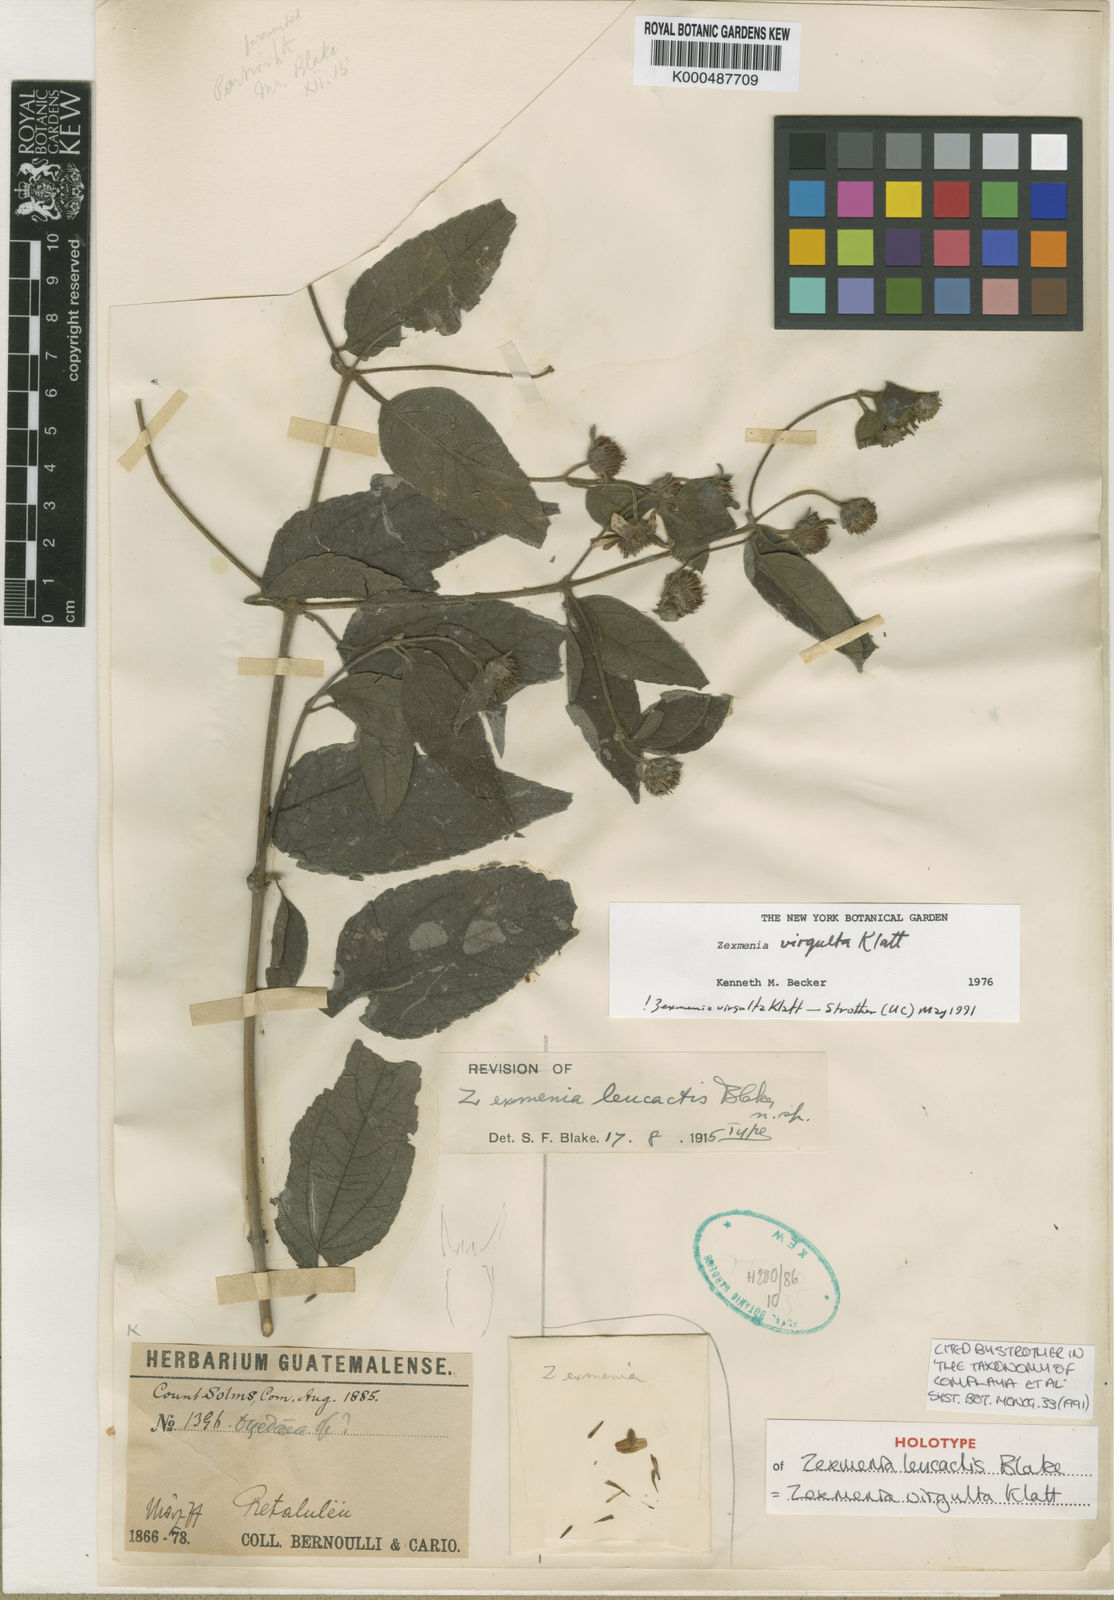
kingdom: Plantae
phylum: Tracheophyta
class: Magnoliopsida
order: Asterales
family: Asteraceae
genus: Zexmenia
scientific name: Zexmenia virgulta
